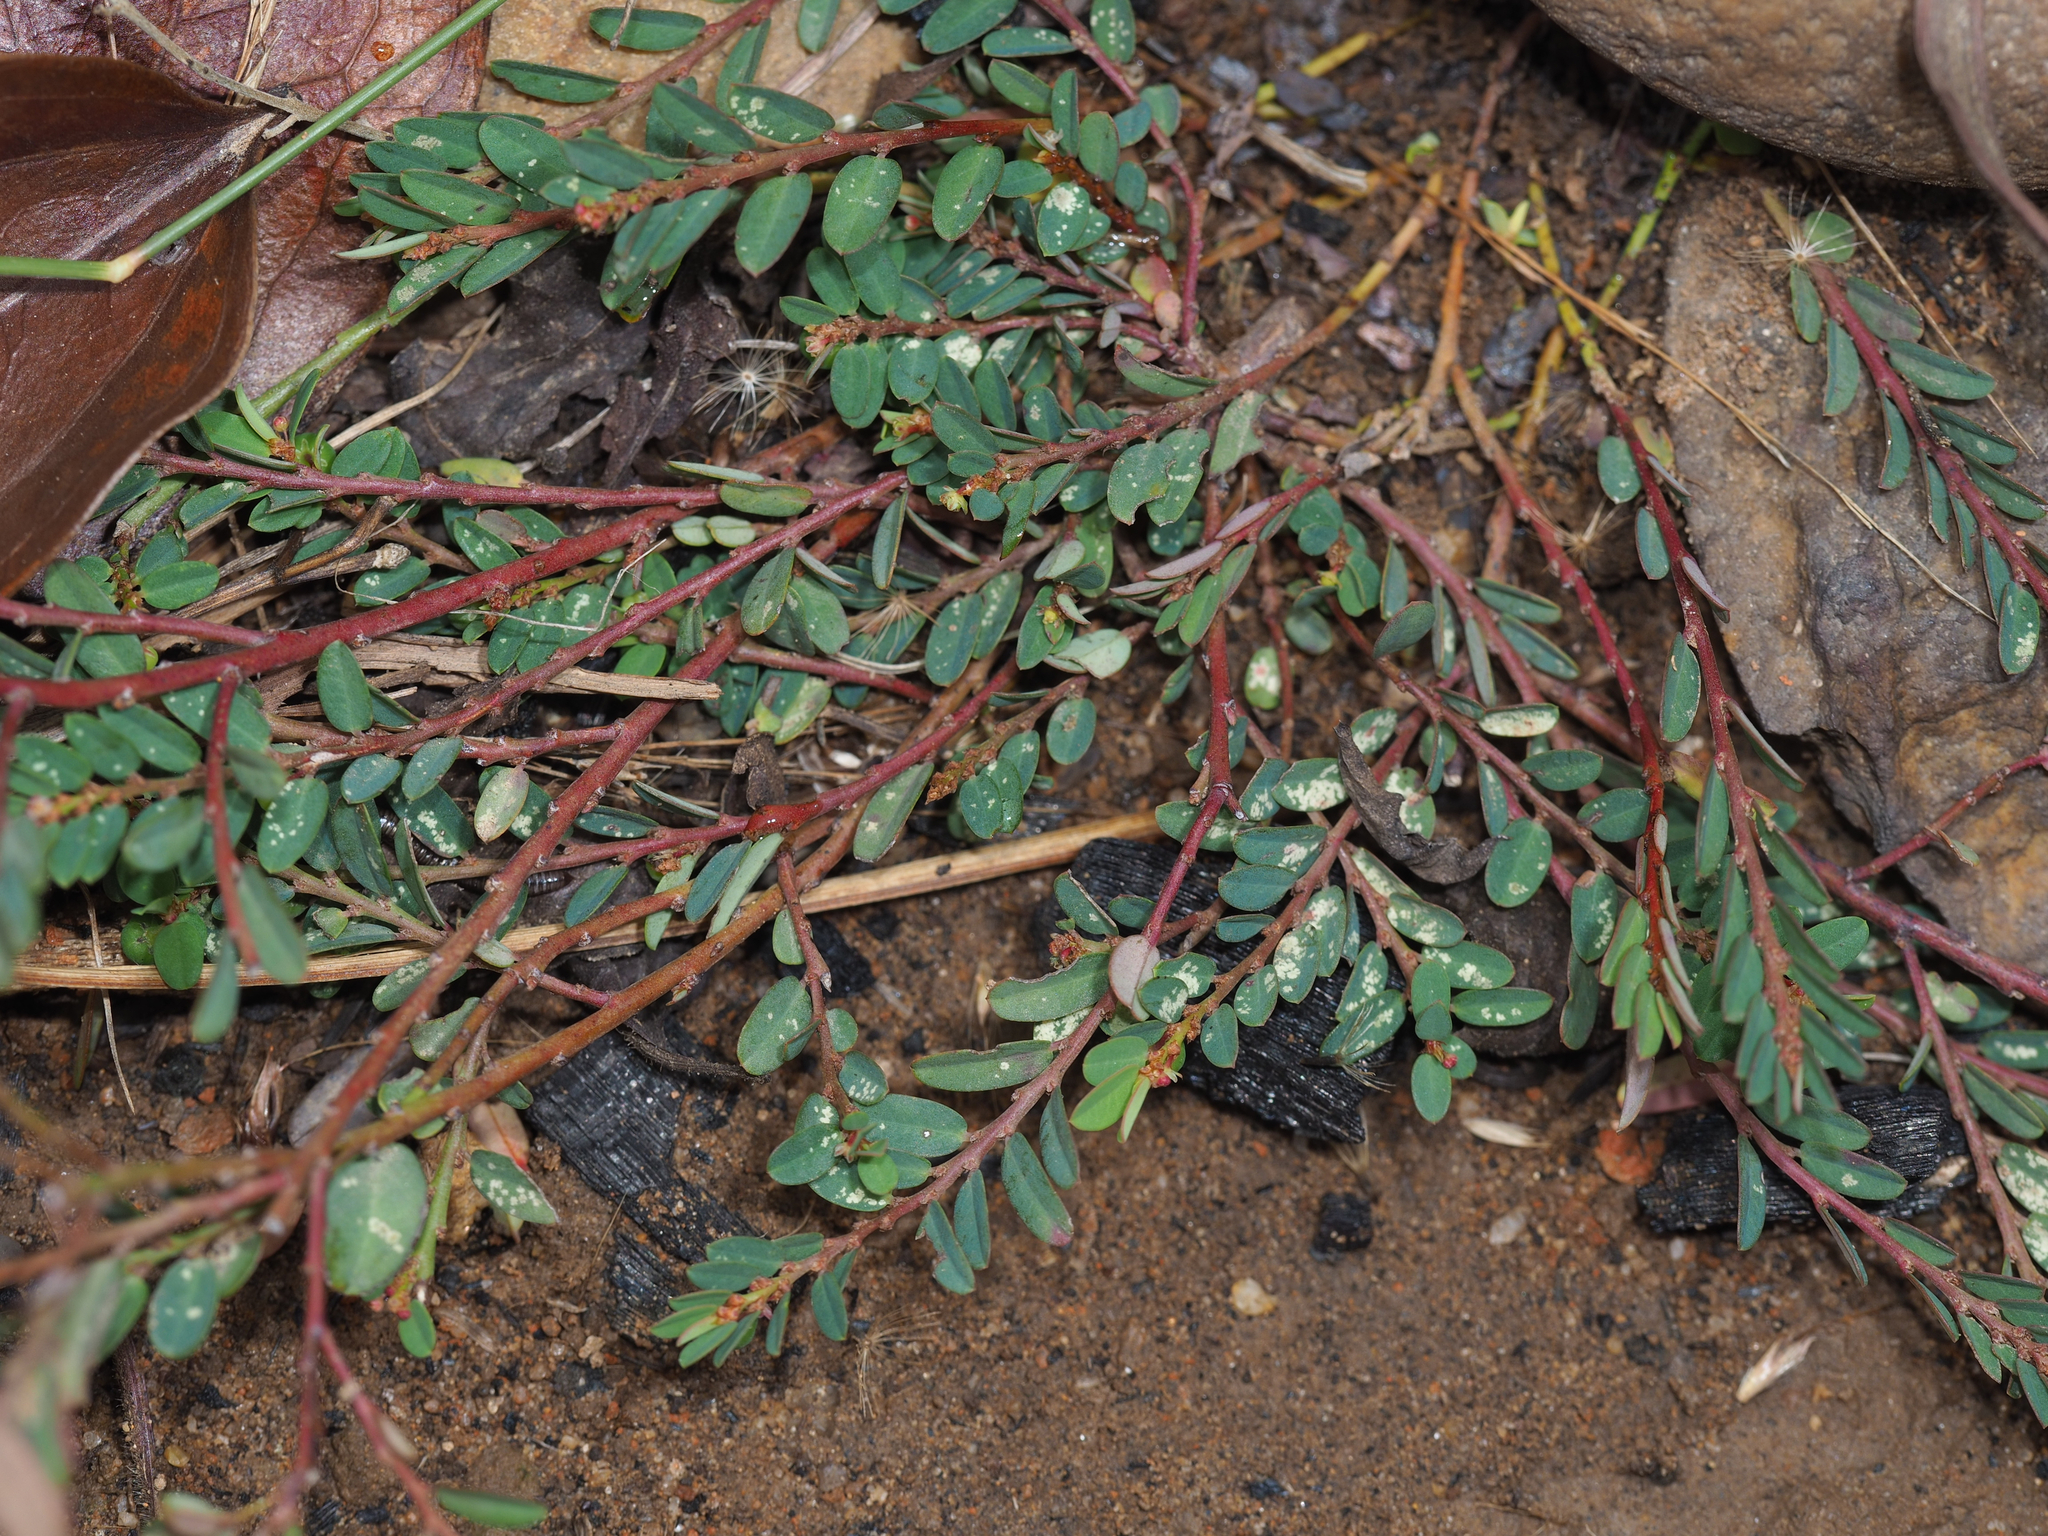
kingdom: Plantae
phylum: Tracheophyta
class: Magnoliopsida
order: Malpighiales
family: Phyllanthaceae
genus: Phyllanthus
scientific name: Phyllanthus virgatus
